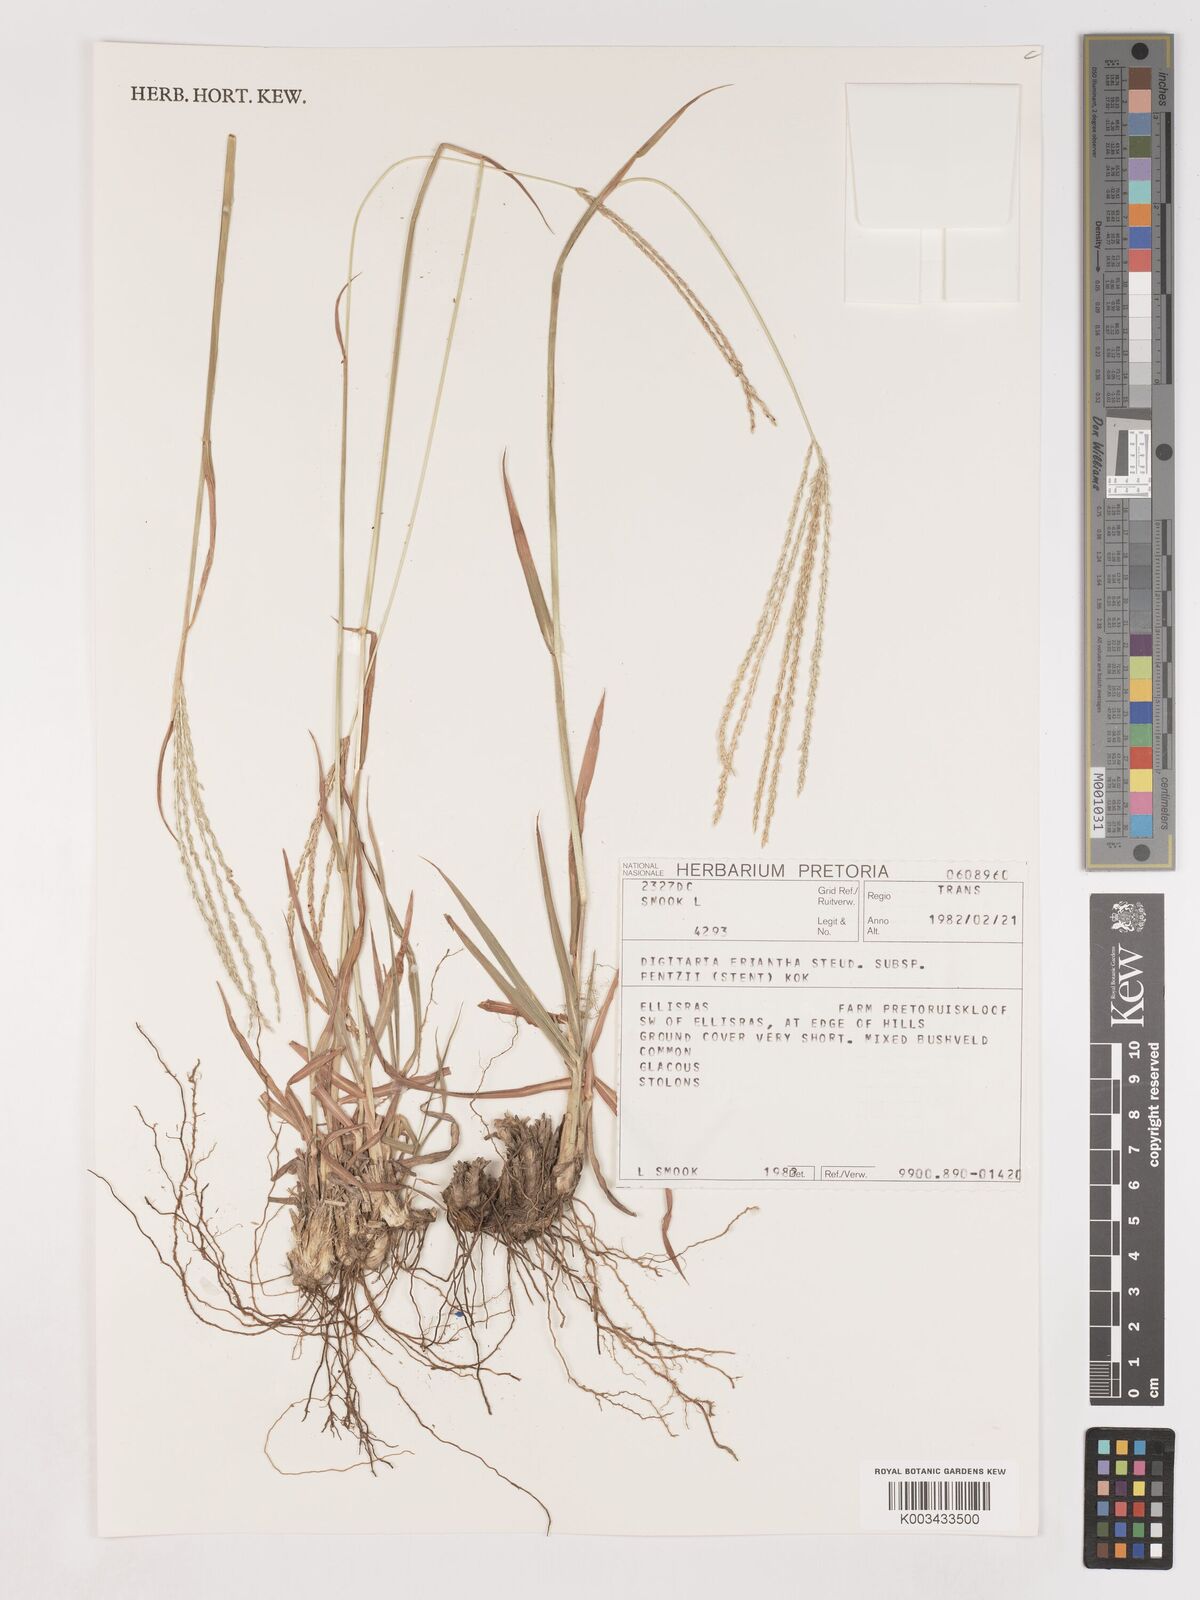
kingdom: Plantae
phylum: Tracheophyta
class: Liliopsida
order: Poales
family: Poaceae
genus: Digitaria
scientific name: Digitaria eriantha
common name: Digitgrass
